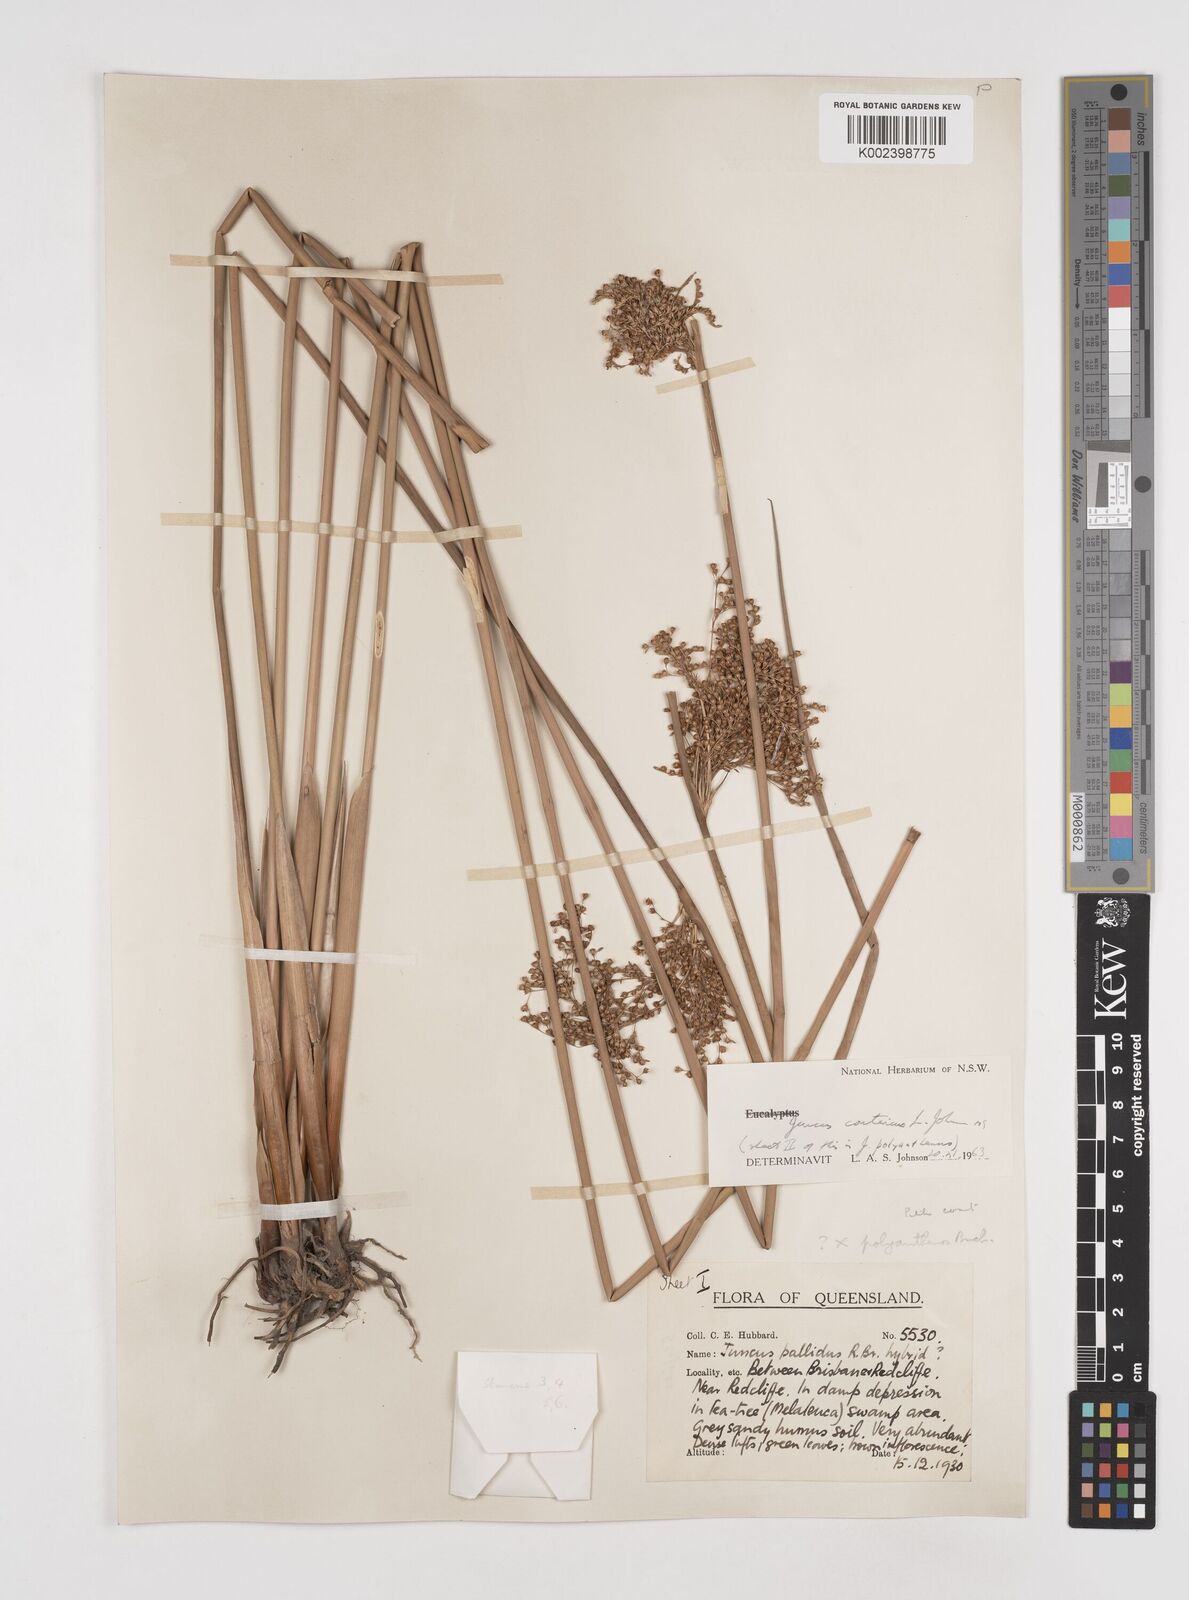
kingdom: Plantae
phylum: Tracheophyta
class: Liliopsida
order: Poales
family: Juncaceae
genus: Juncus
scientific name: Juncus continuus
